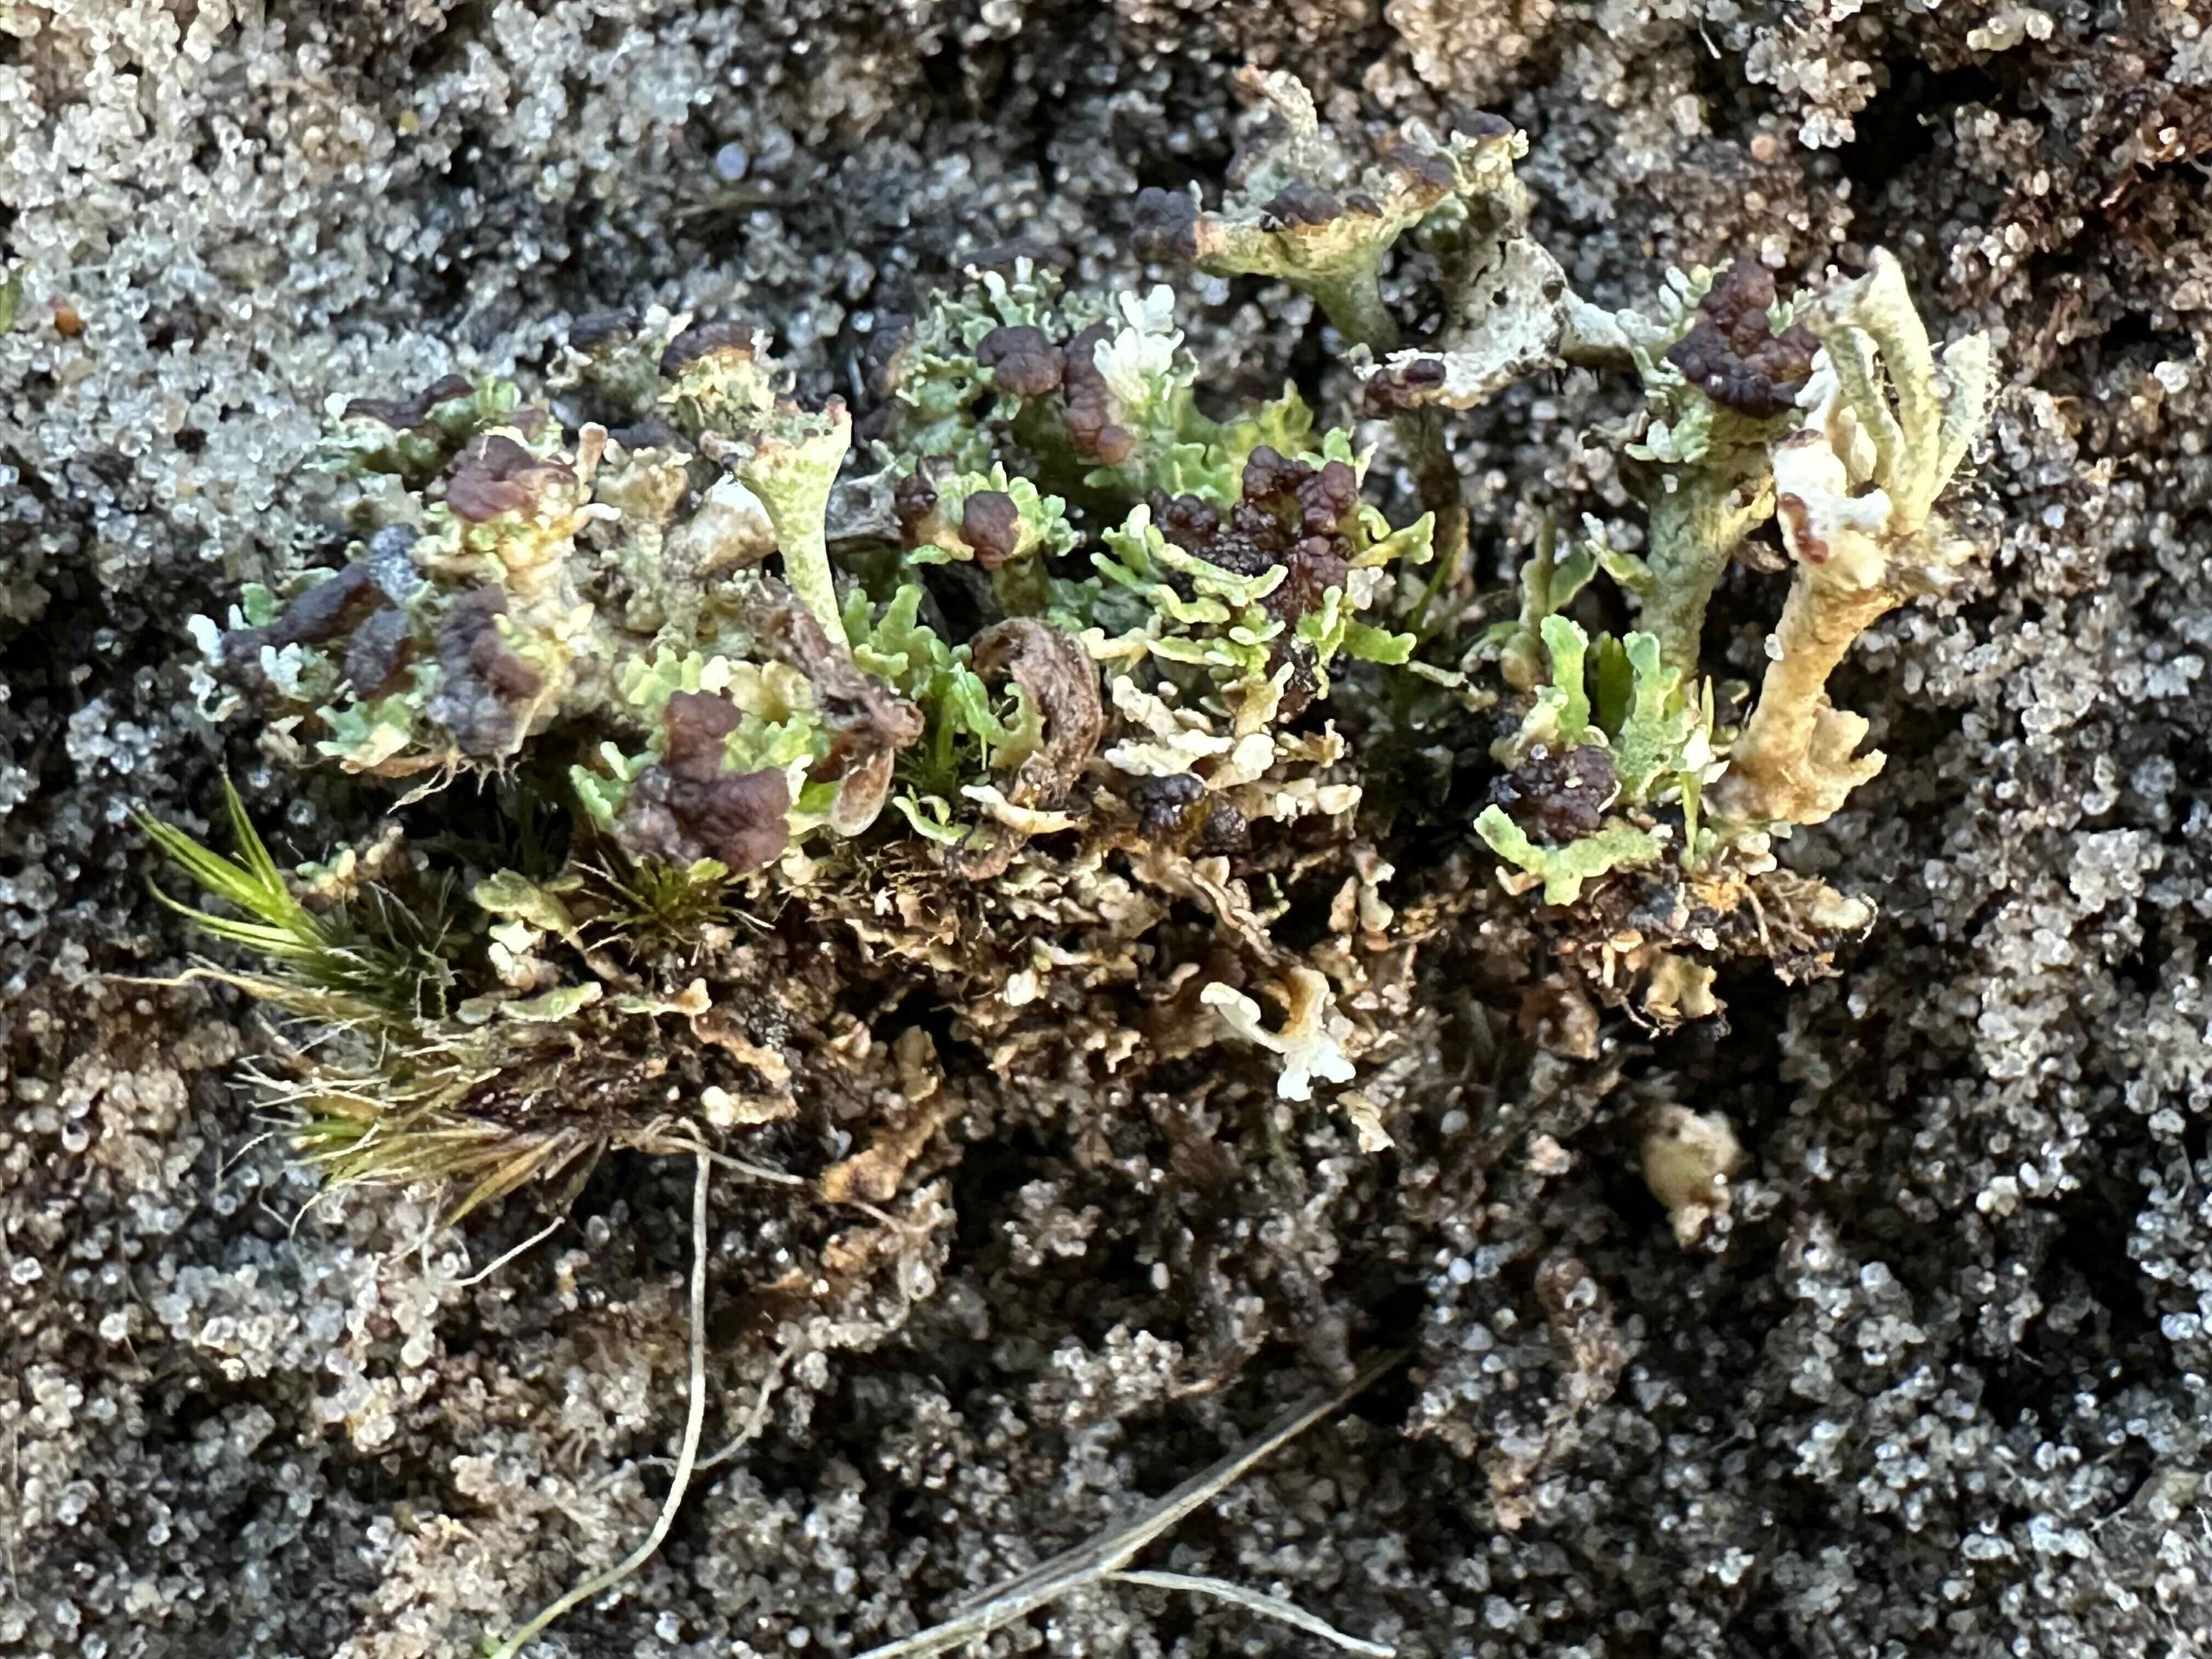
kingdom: Fungi
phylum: Ascomycota
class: Lecanoromycetes
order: Lecanorales
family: Cladoniaceae
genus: Cladonia
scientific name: Cladonia cervicornis
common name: gevir-bægerlav
